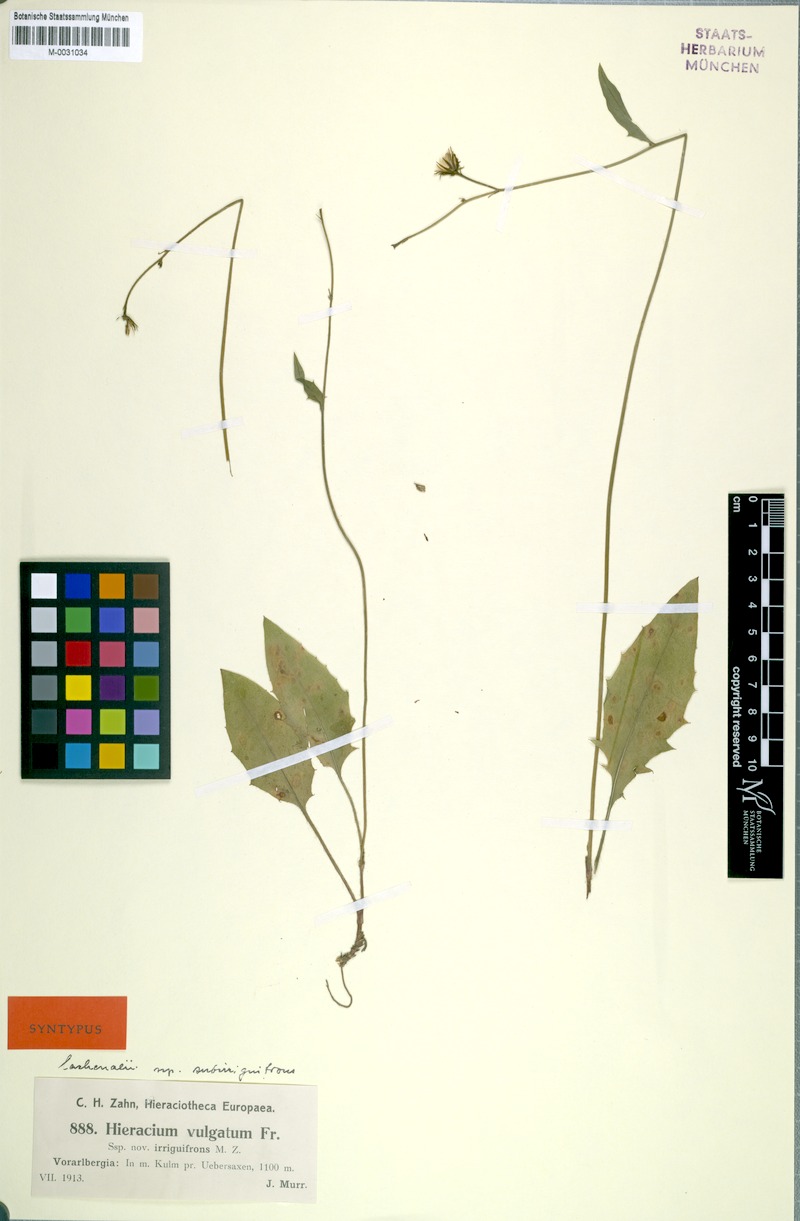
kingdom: Plantae
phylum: Tracheophyta
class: Magnoliopsida
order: Asterales
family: Asteraceae
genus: Hieracium
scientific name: Hieracium lachenalii
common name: Common hawkweed
